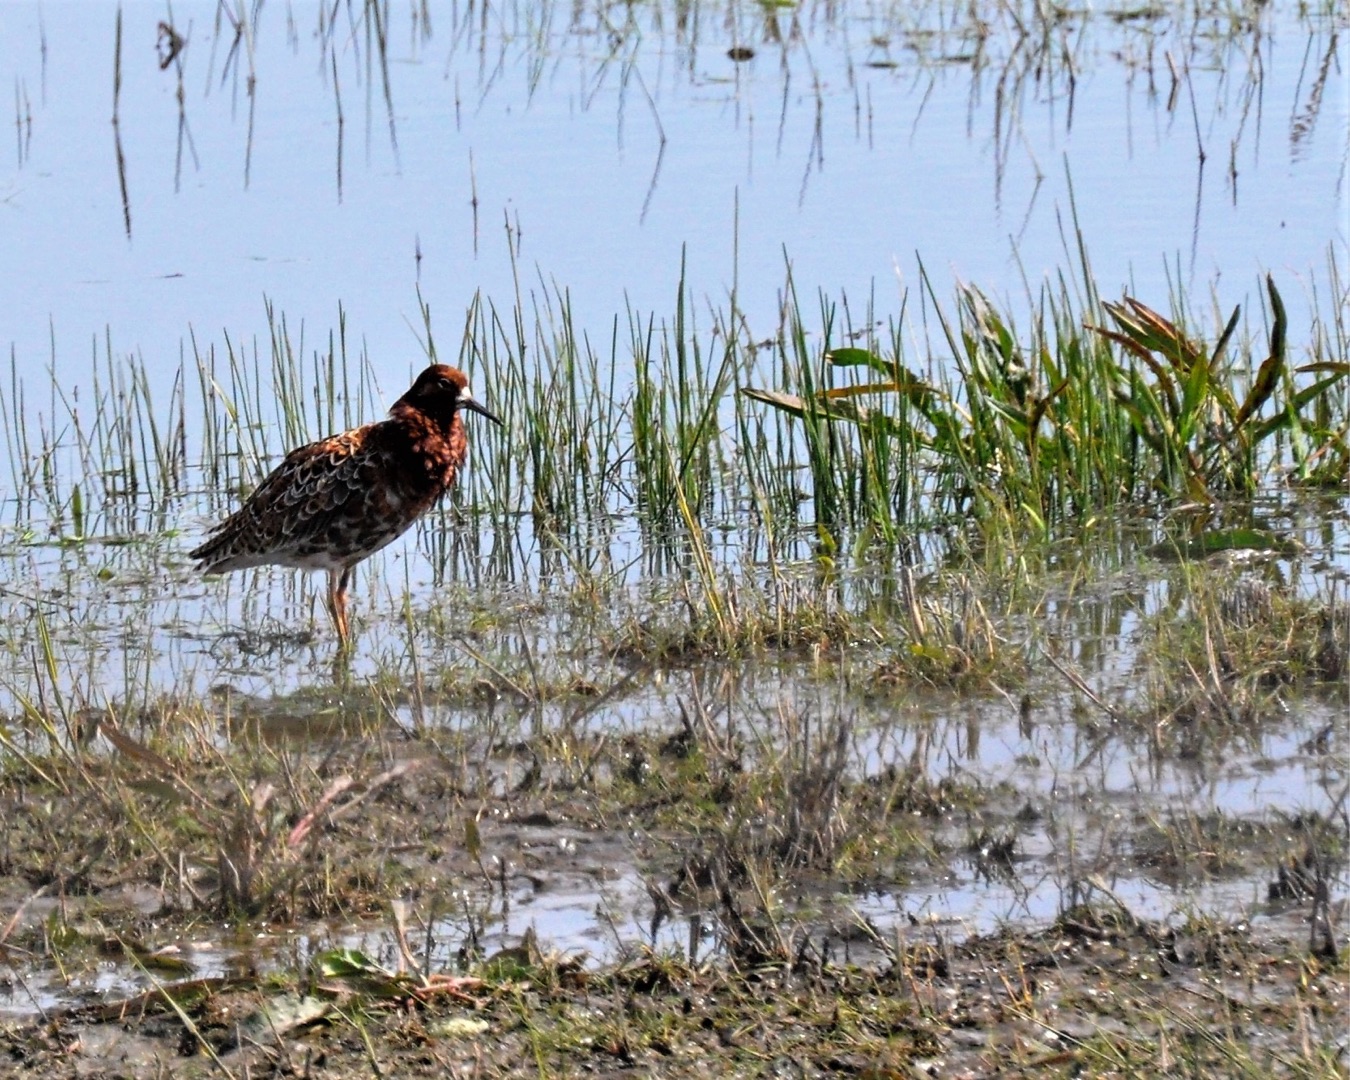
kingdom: Animalia
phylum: Chordata
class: Aves
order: Charadriiformes
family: Scolopacidae
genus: Calidris
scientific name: Calidris pugnax
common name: Brushane
